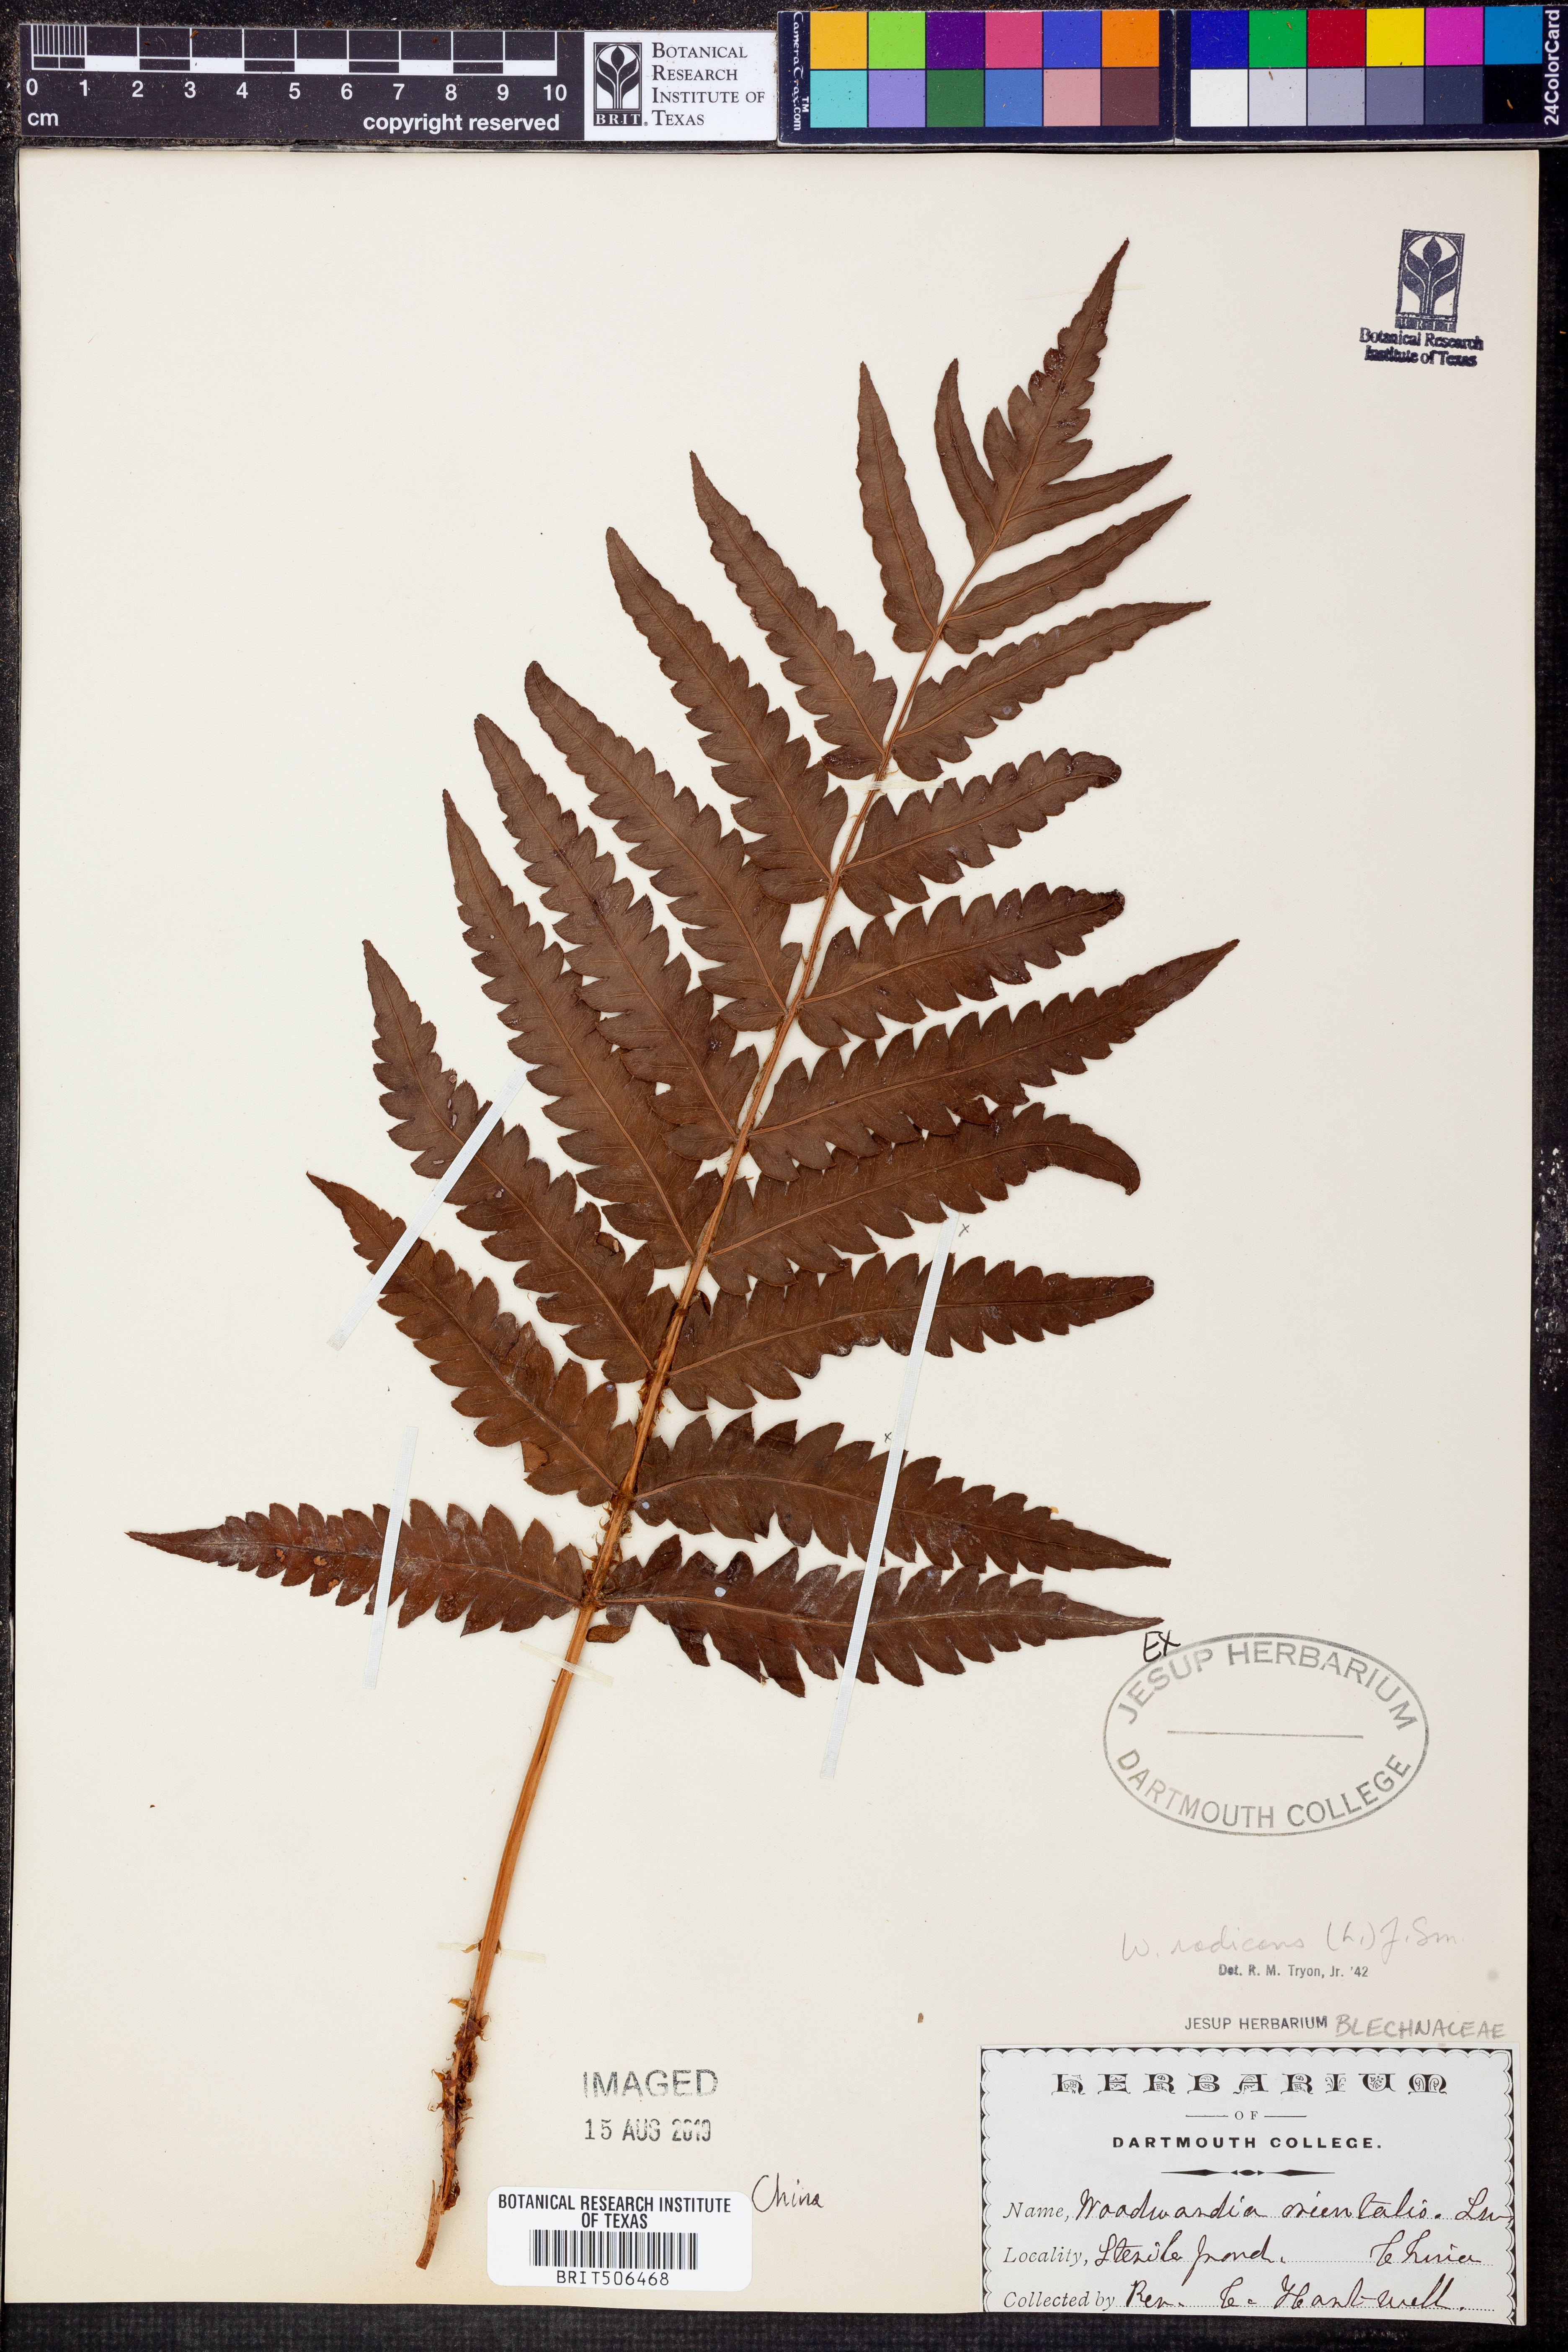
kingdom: Plantae
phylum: Tracheophyta
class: Polypodiopsida
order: Polypodiales
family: Blechnaceae
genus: Woodwardia
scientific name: Woodwardia radicans
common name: Rooting chainfern
